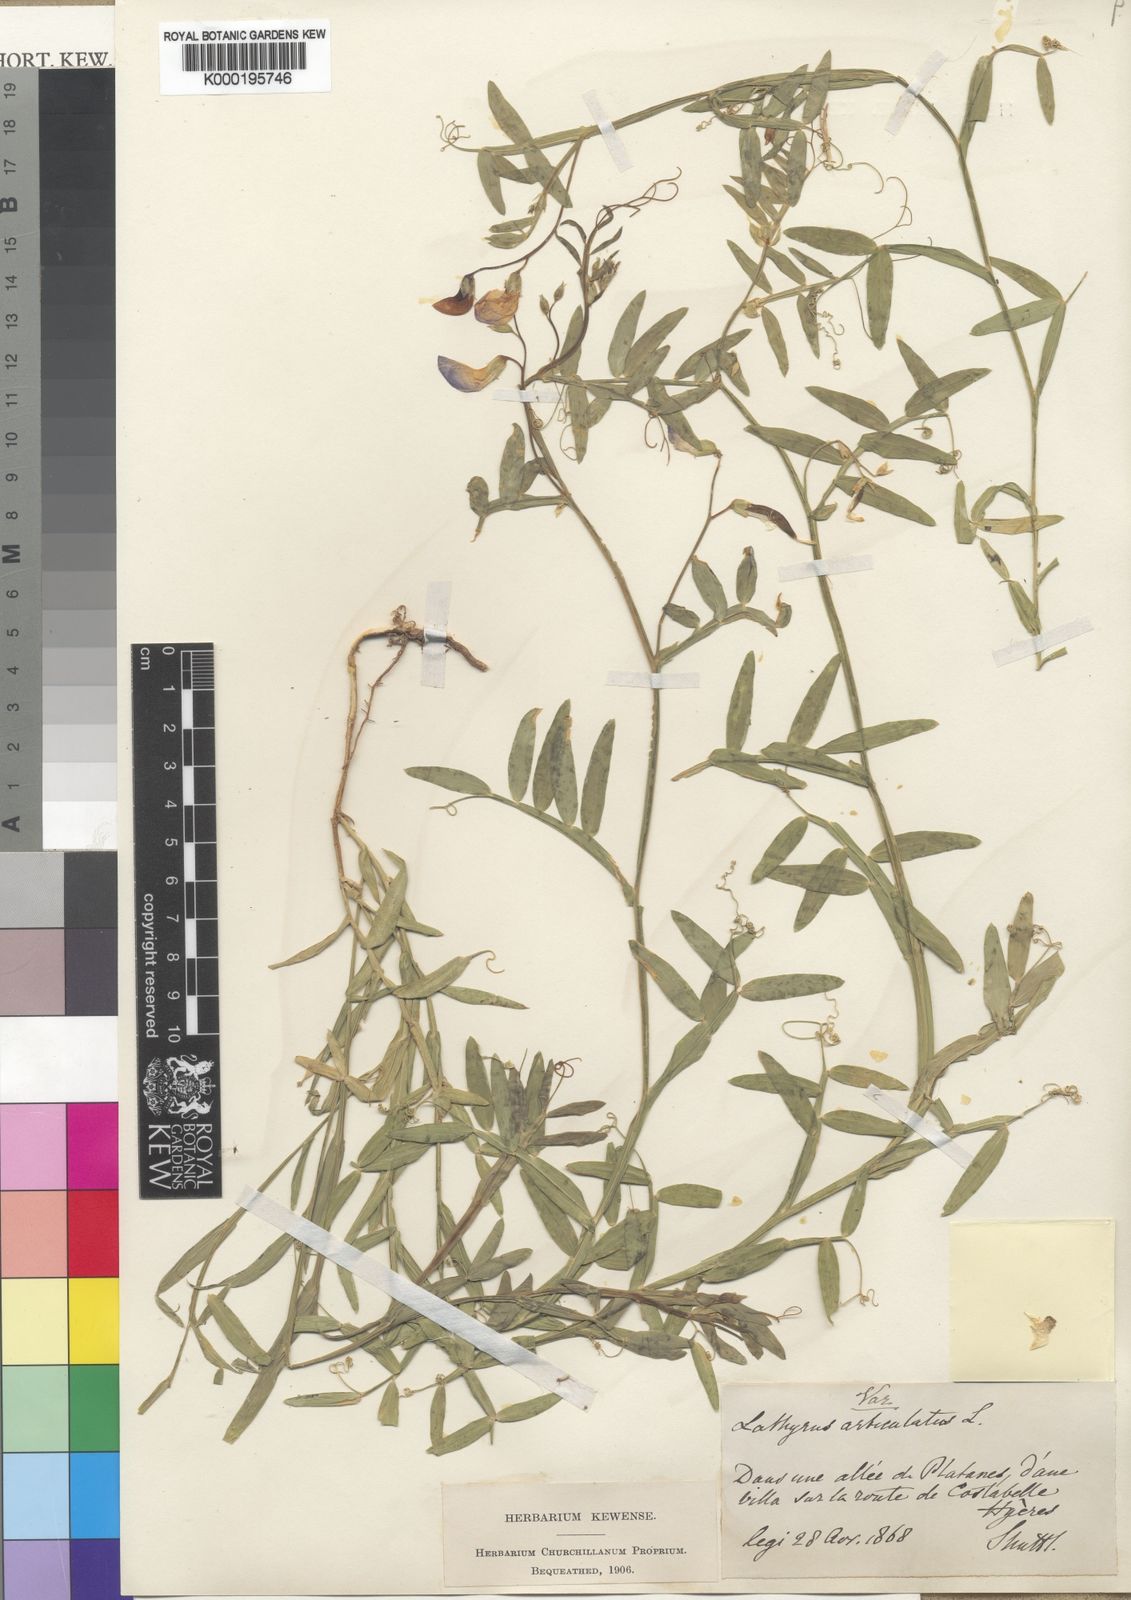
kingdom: Plantae
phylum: Tracheophyta
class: Magnoliopsida
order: Fabales
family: Fabaceae
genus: Lathyrus
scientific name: Lathyrus articulatus
